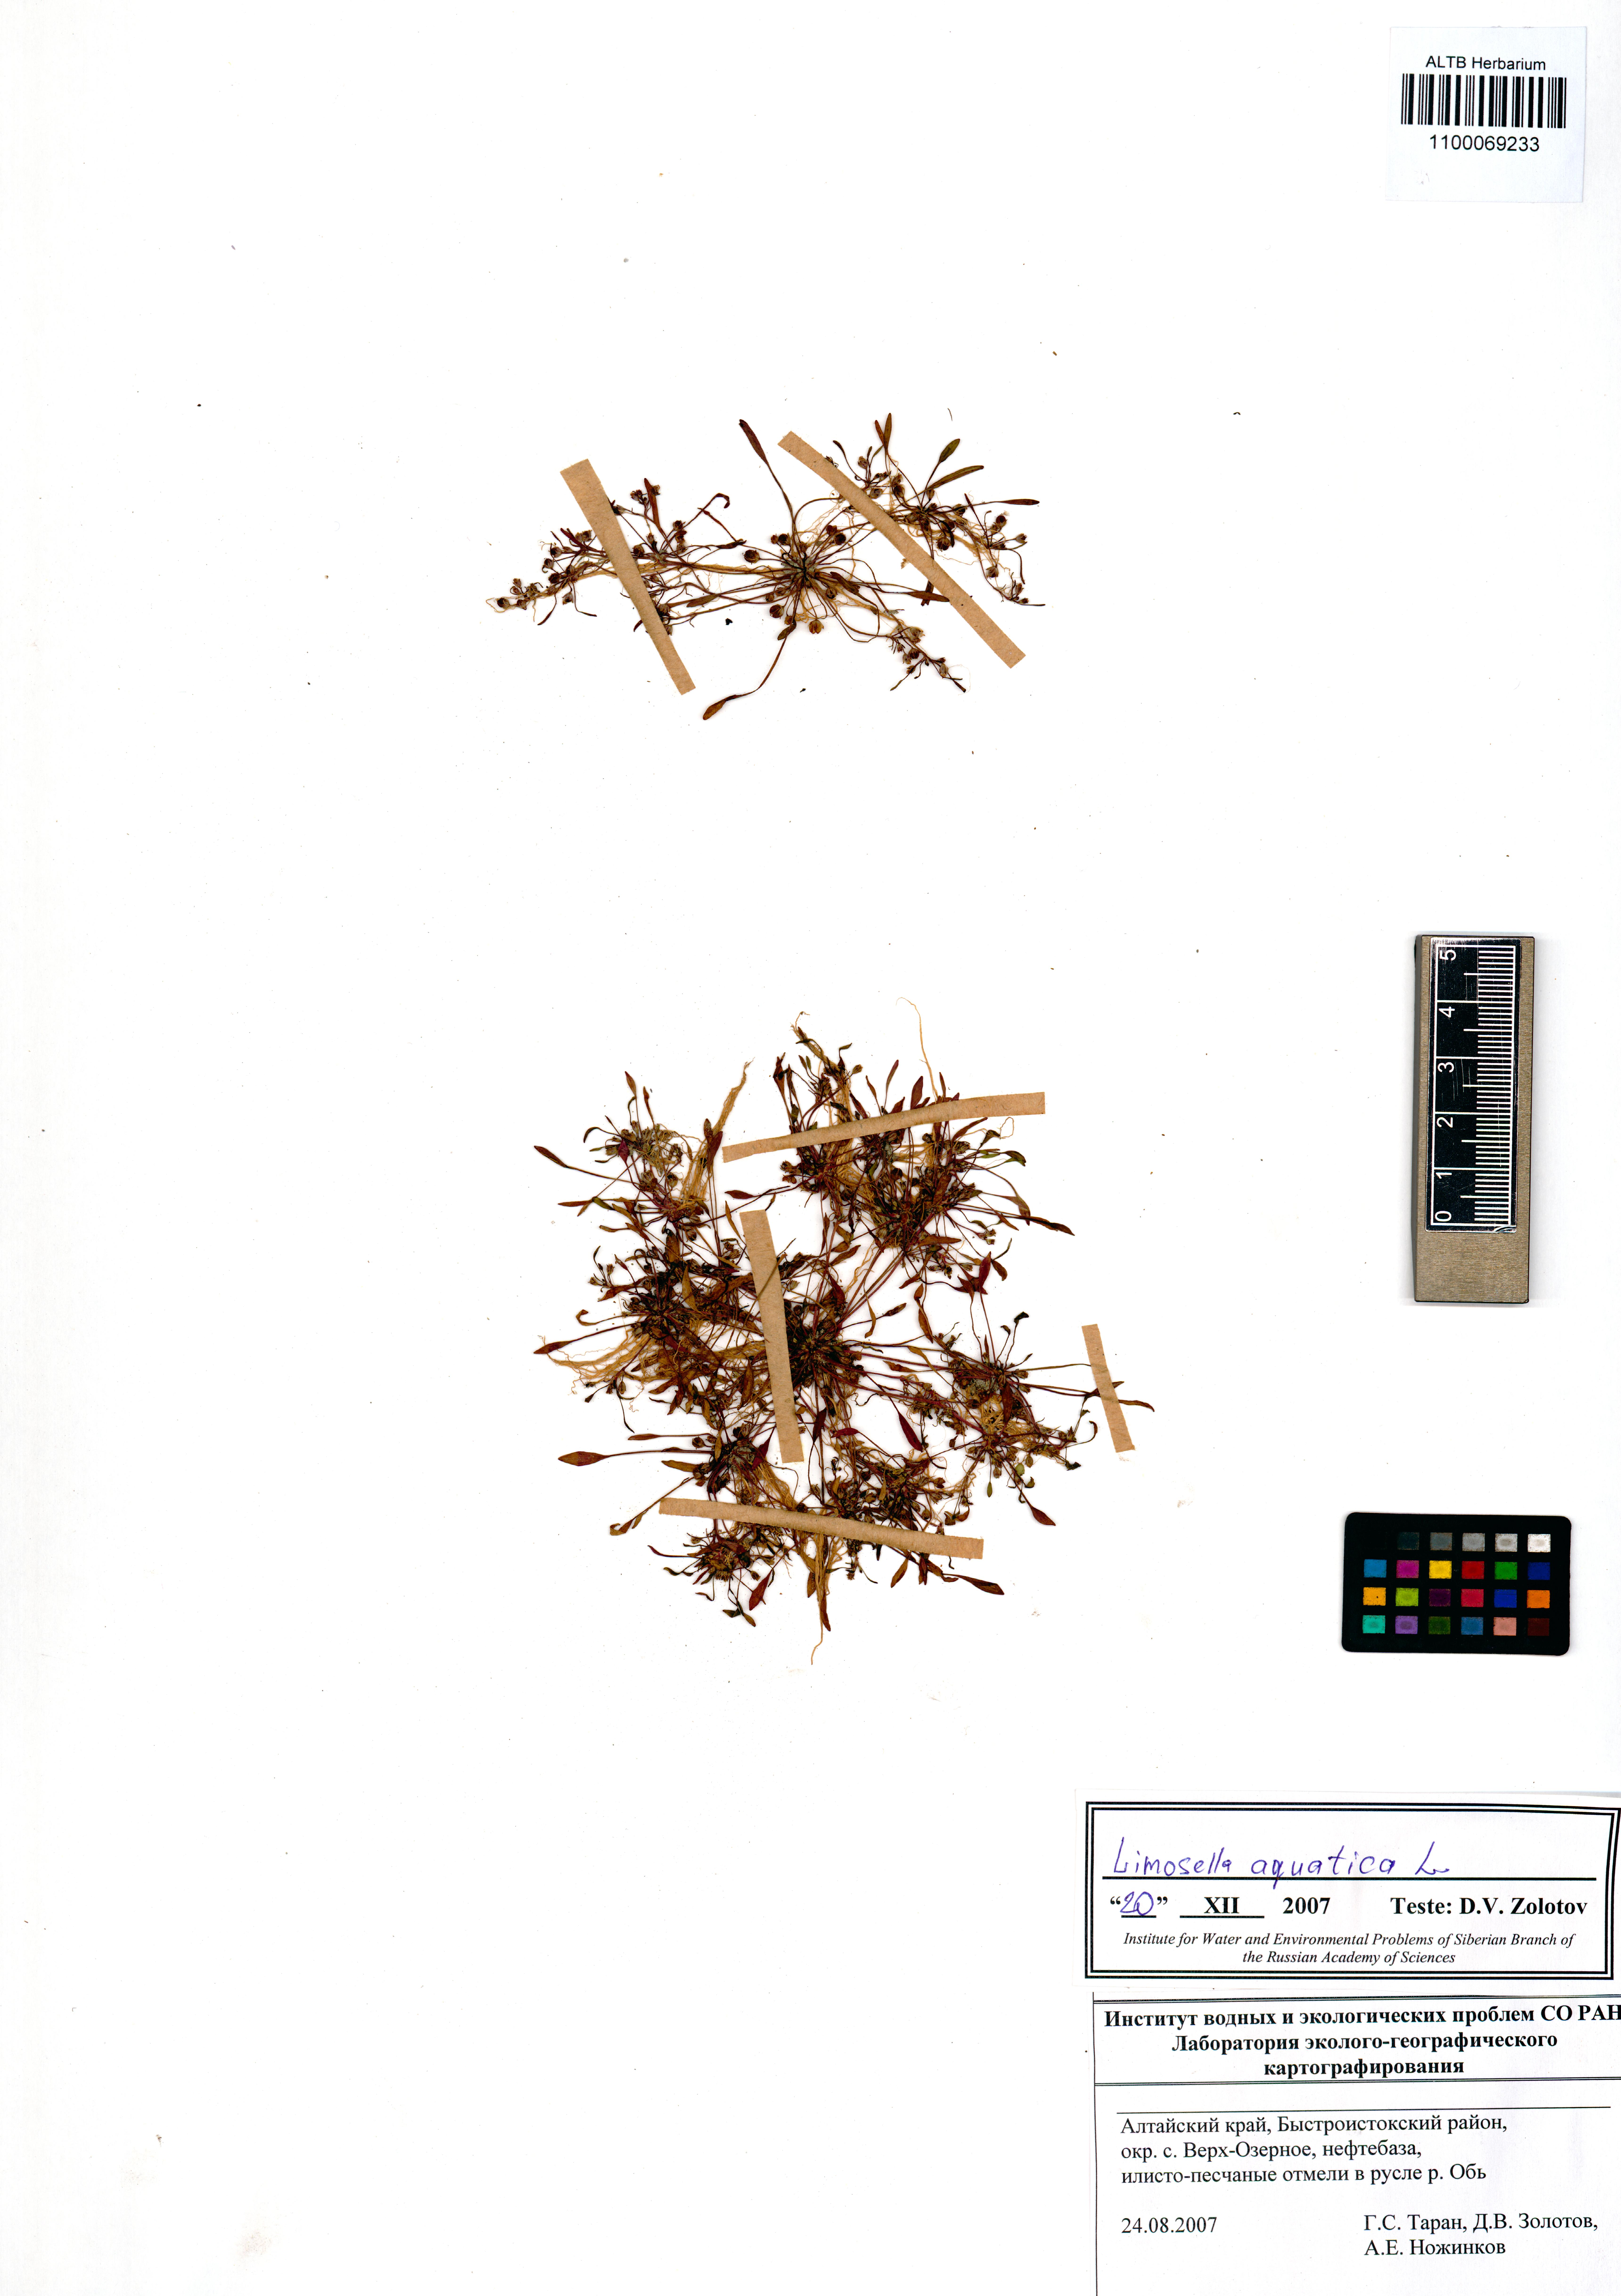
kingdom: Plantae
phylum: Tracheophyta
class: Magnoliopsida
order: Lamiales
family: Scrophulariaceae
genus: Limosella
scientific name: Limosella aquatica
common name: Mudwort
